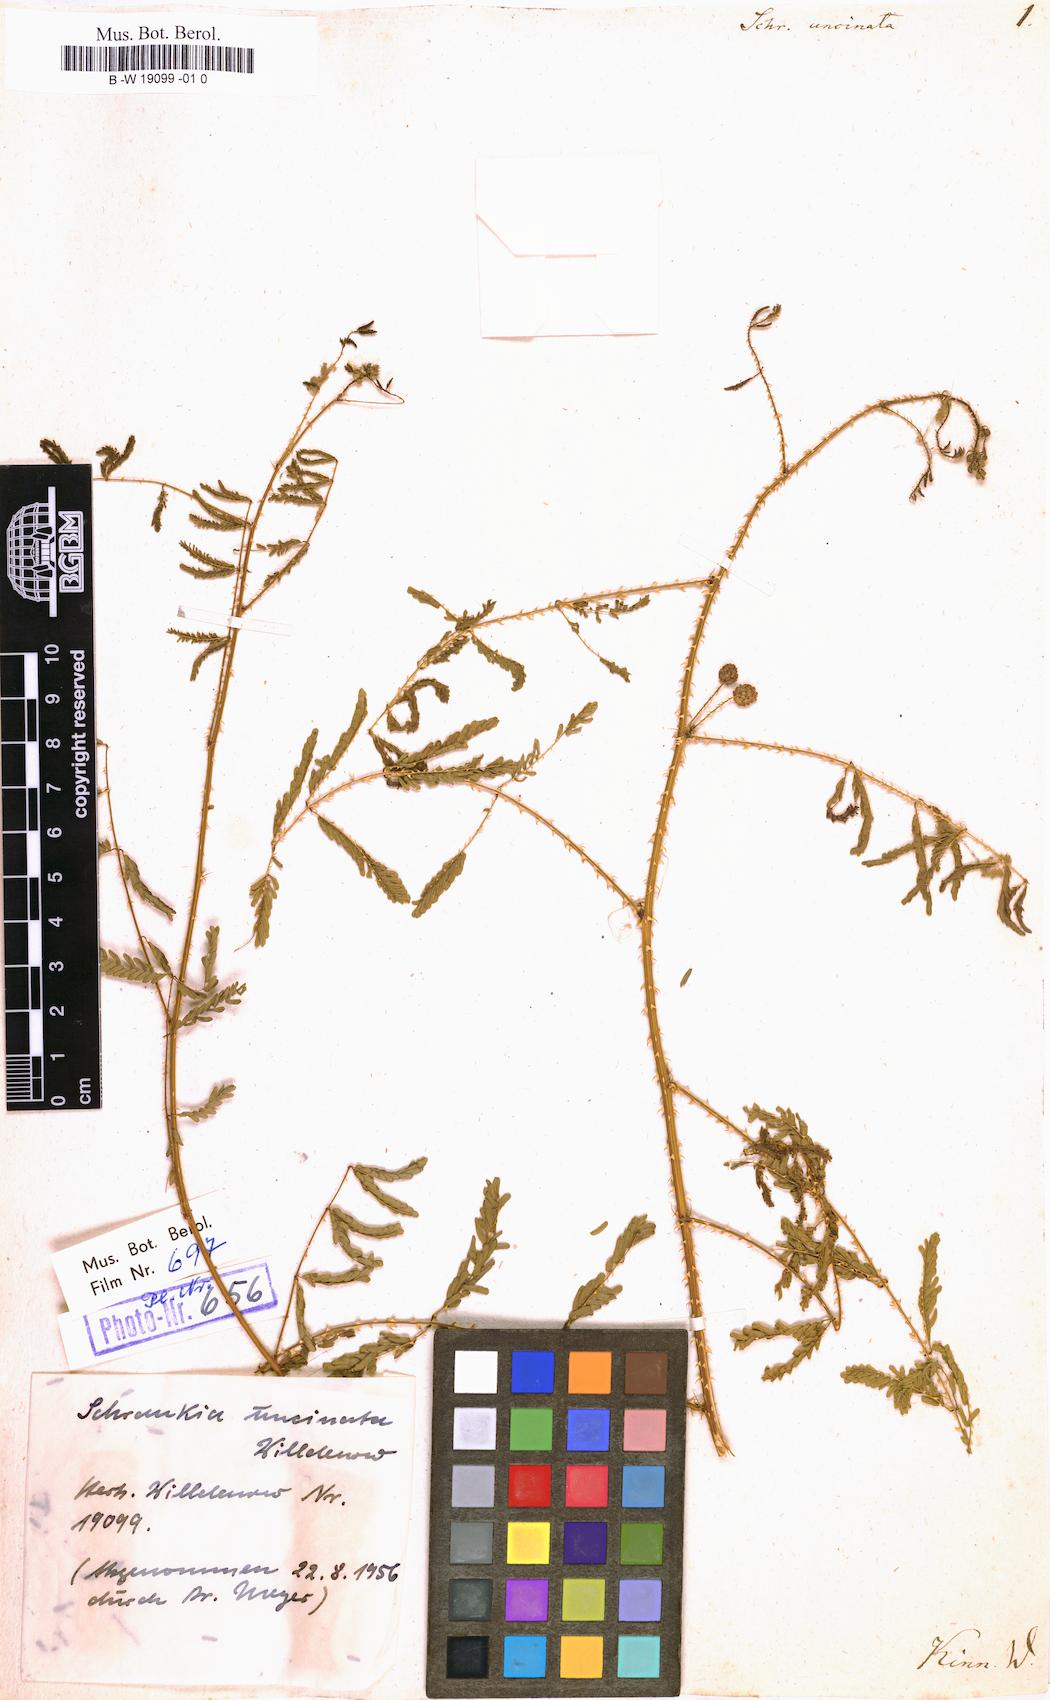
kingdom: Plantae
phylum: Tracheophyta
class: Magnoliopsida
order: Fabales
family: Fabaceae
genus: Mimosa
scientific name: Mimosa quadrivalvis
